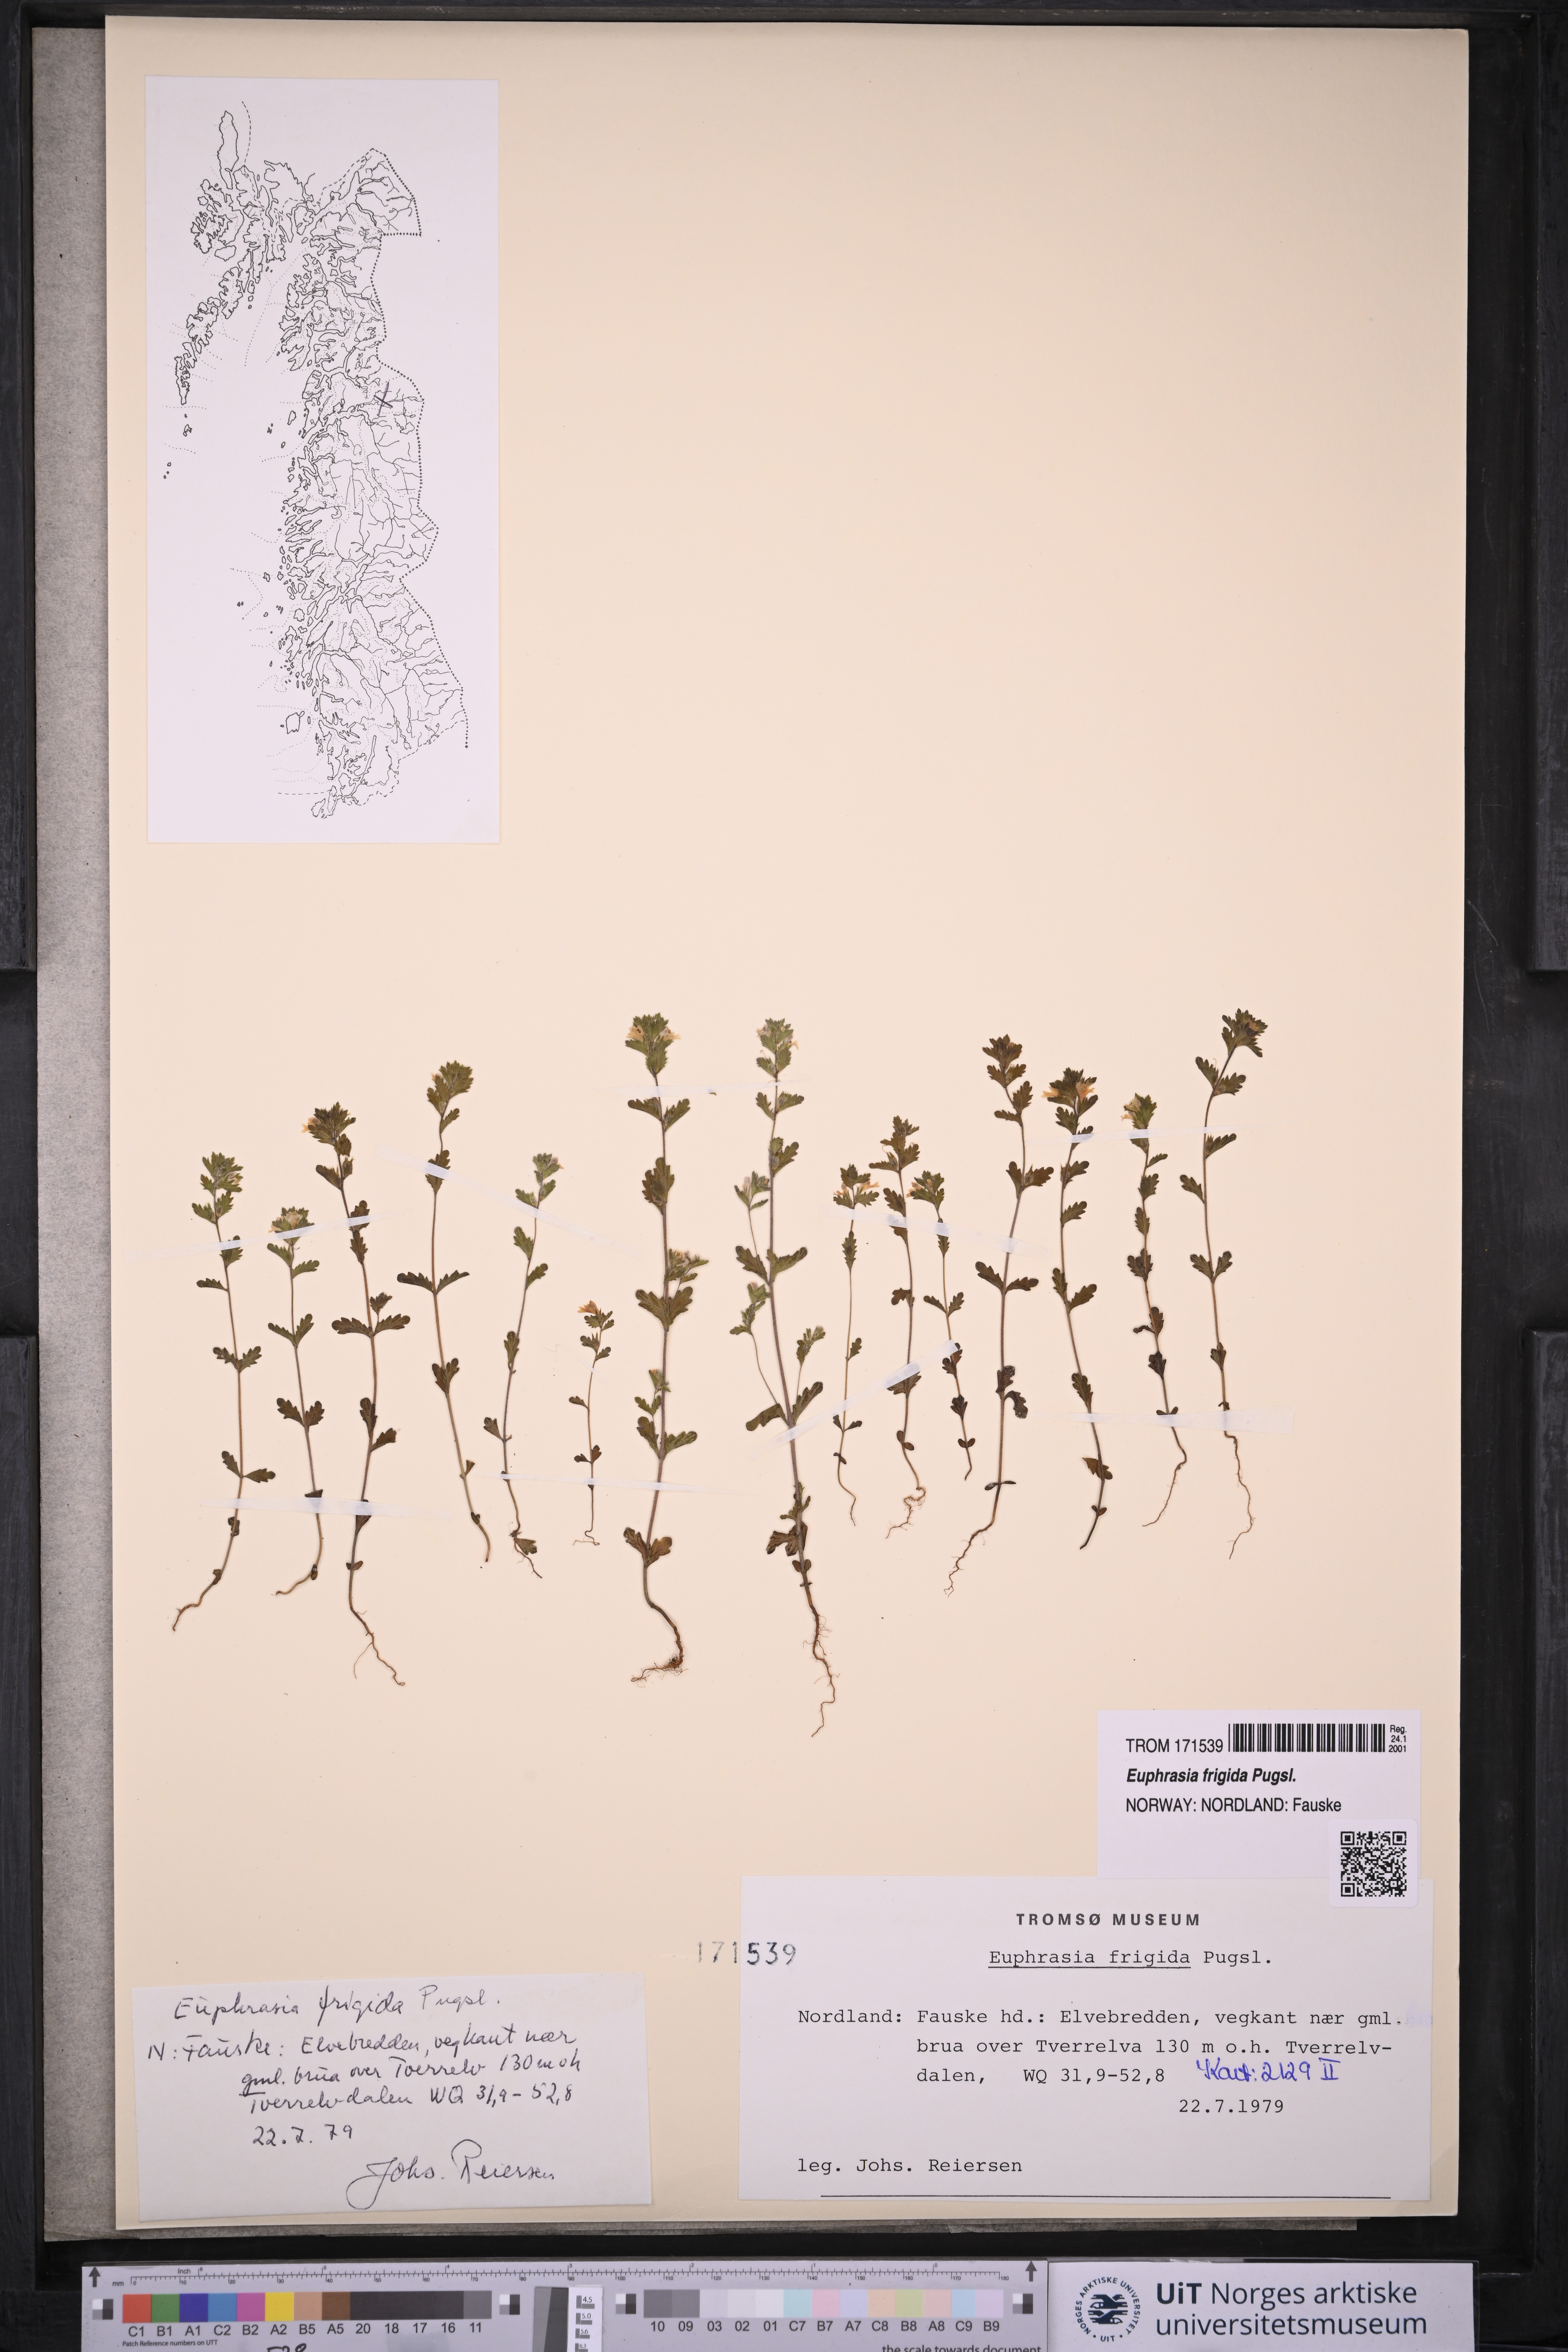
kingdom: Plantae
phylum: Tracheophyta
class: Magnoliopsida
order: Lamiales
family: Orobanchaceae
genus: Euphrasia
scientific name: Euphrasia frigida
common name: An eyebright
